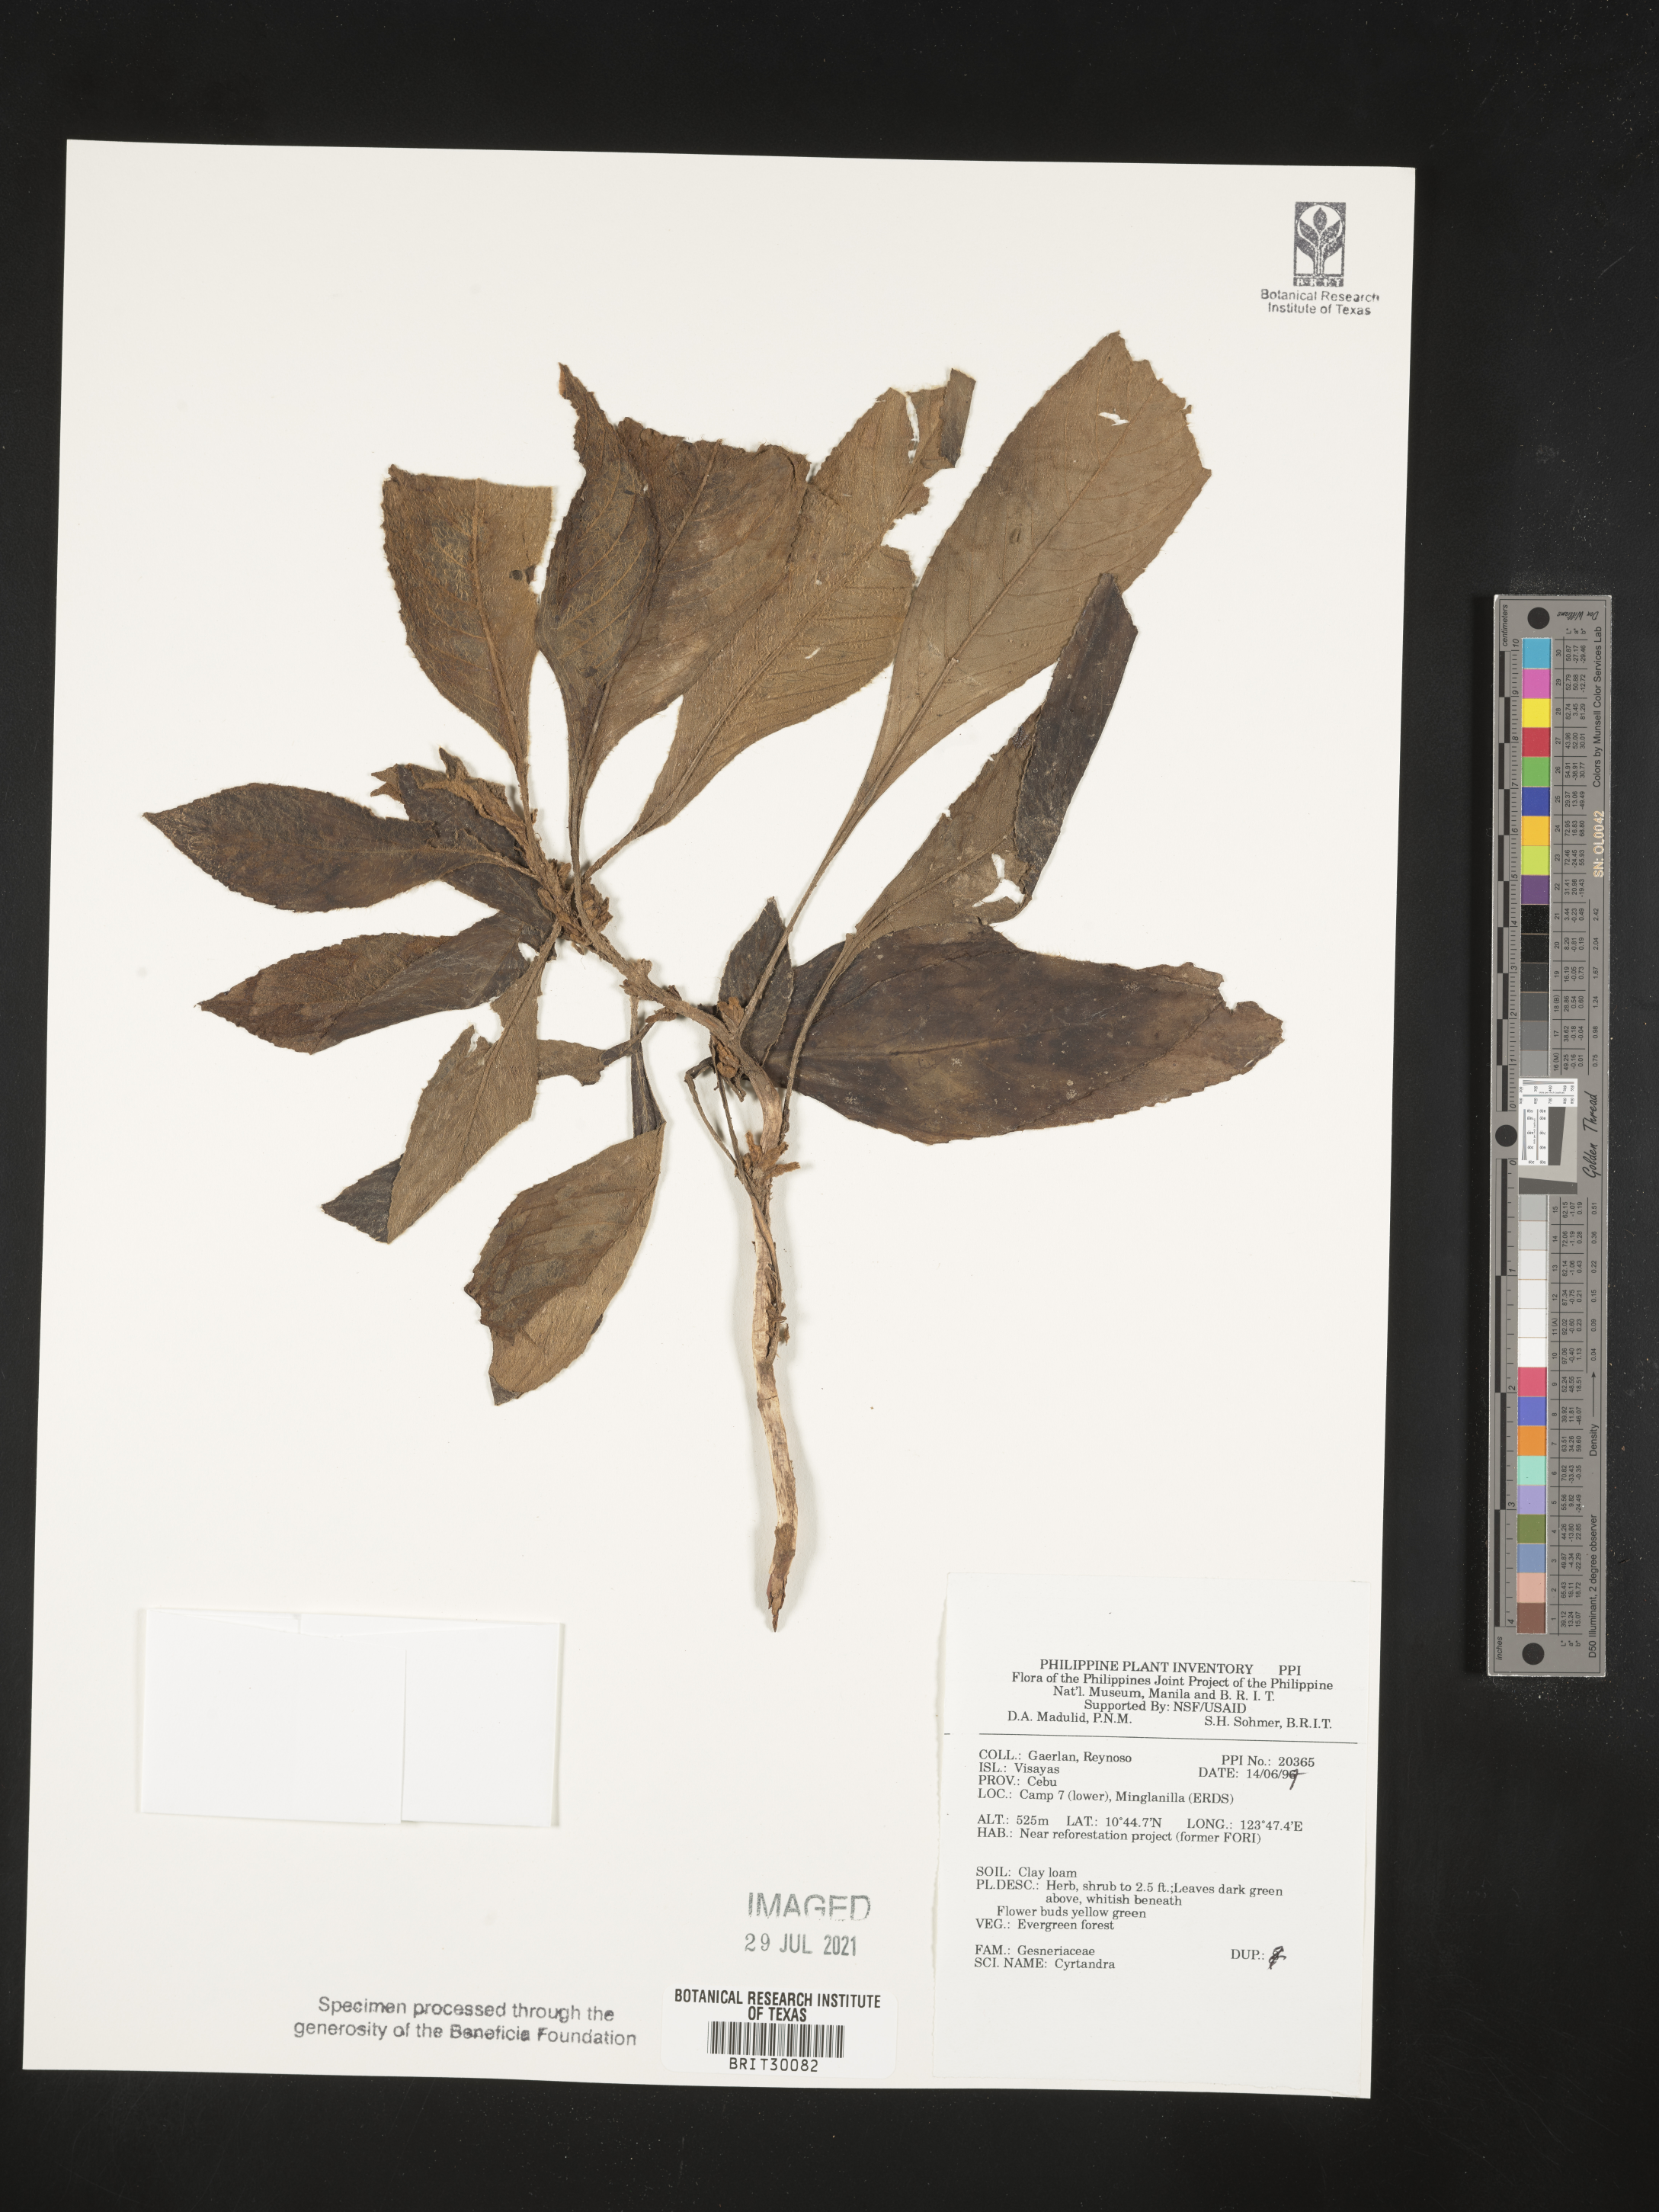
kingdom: Plantae
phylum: Tracheophyta
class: Magnoliopsida
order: Lamiales
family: Gesneriaceae
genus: Cyrtandra
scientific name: Cyrtandra
